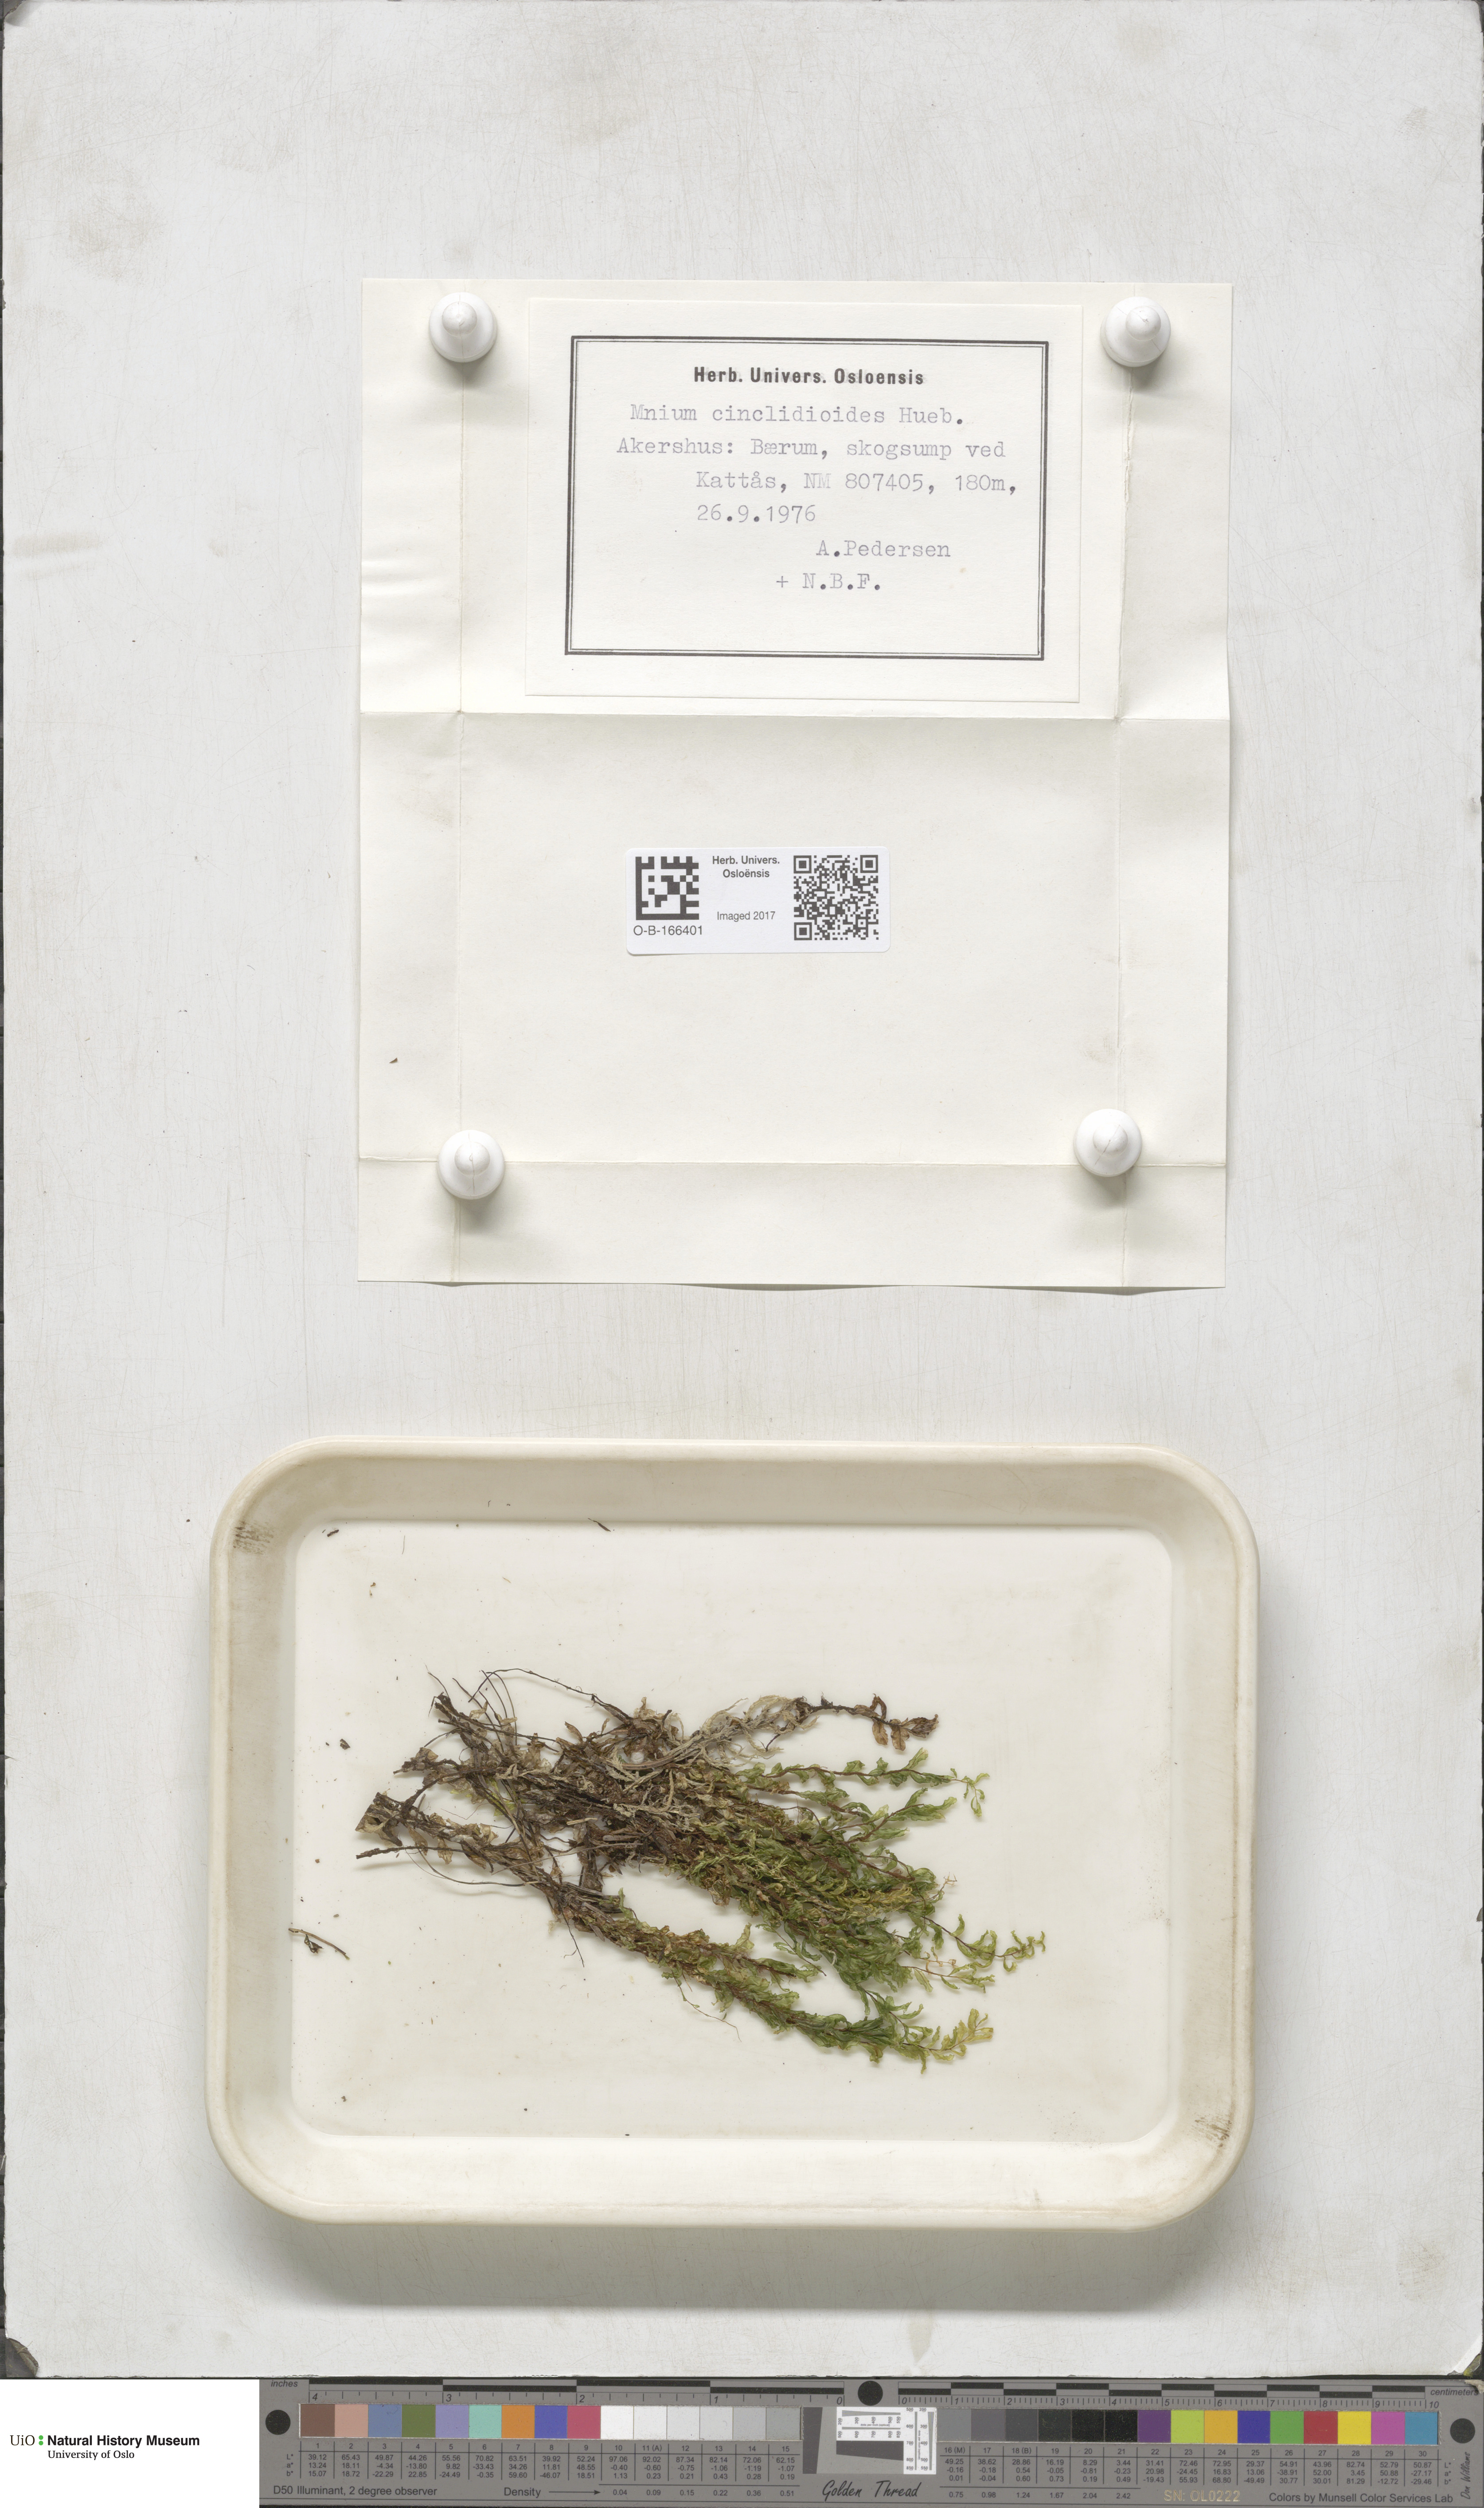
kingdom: Plantae
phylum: Bryophyta
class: Bryopsida
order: Bryales
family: Mniaceae
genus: Pseudobryum
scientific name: Pseudobryum cinclidioides
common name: River thyme moss
